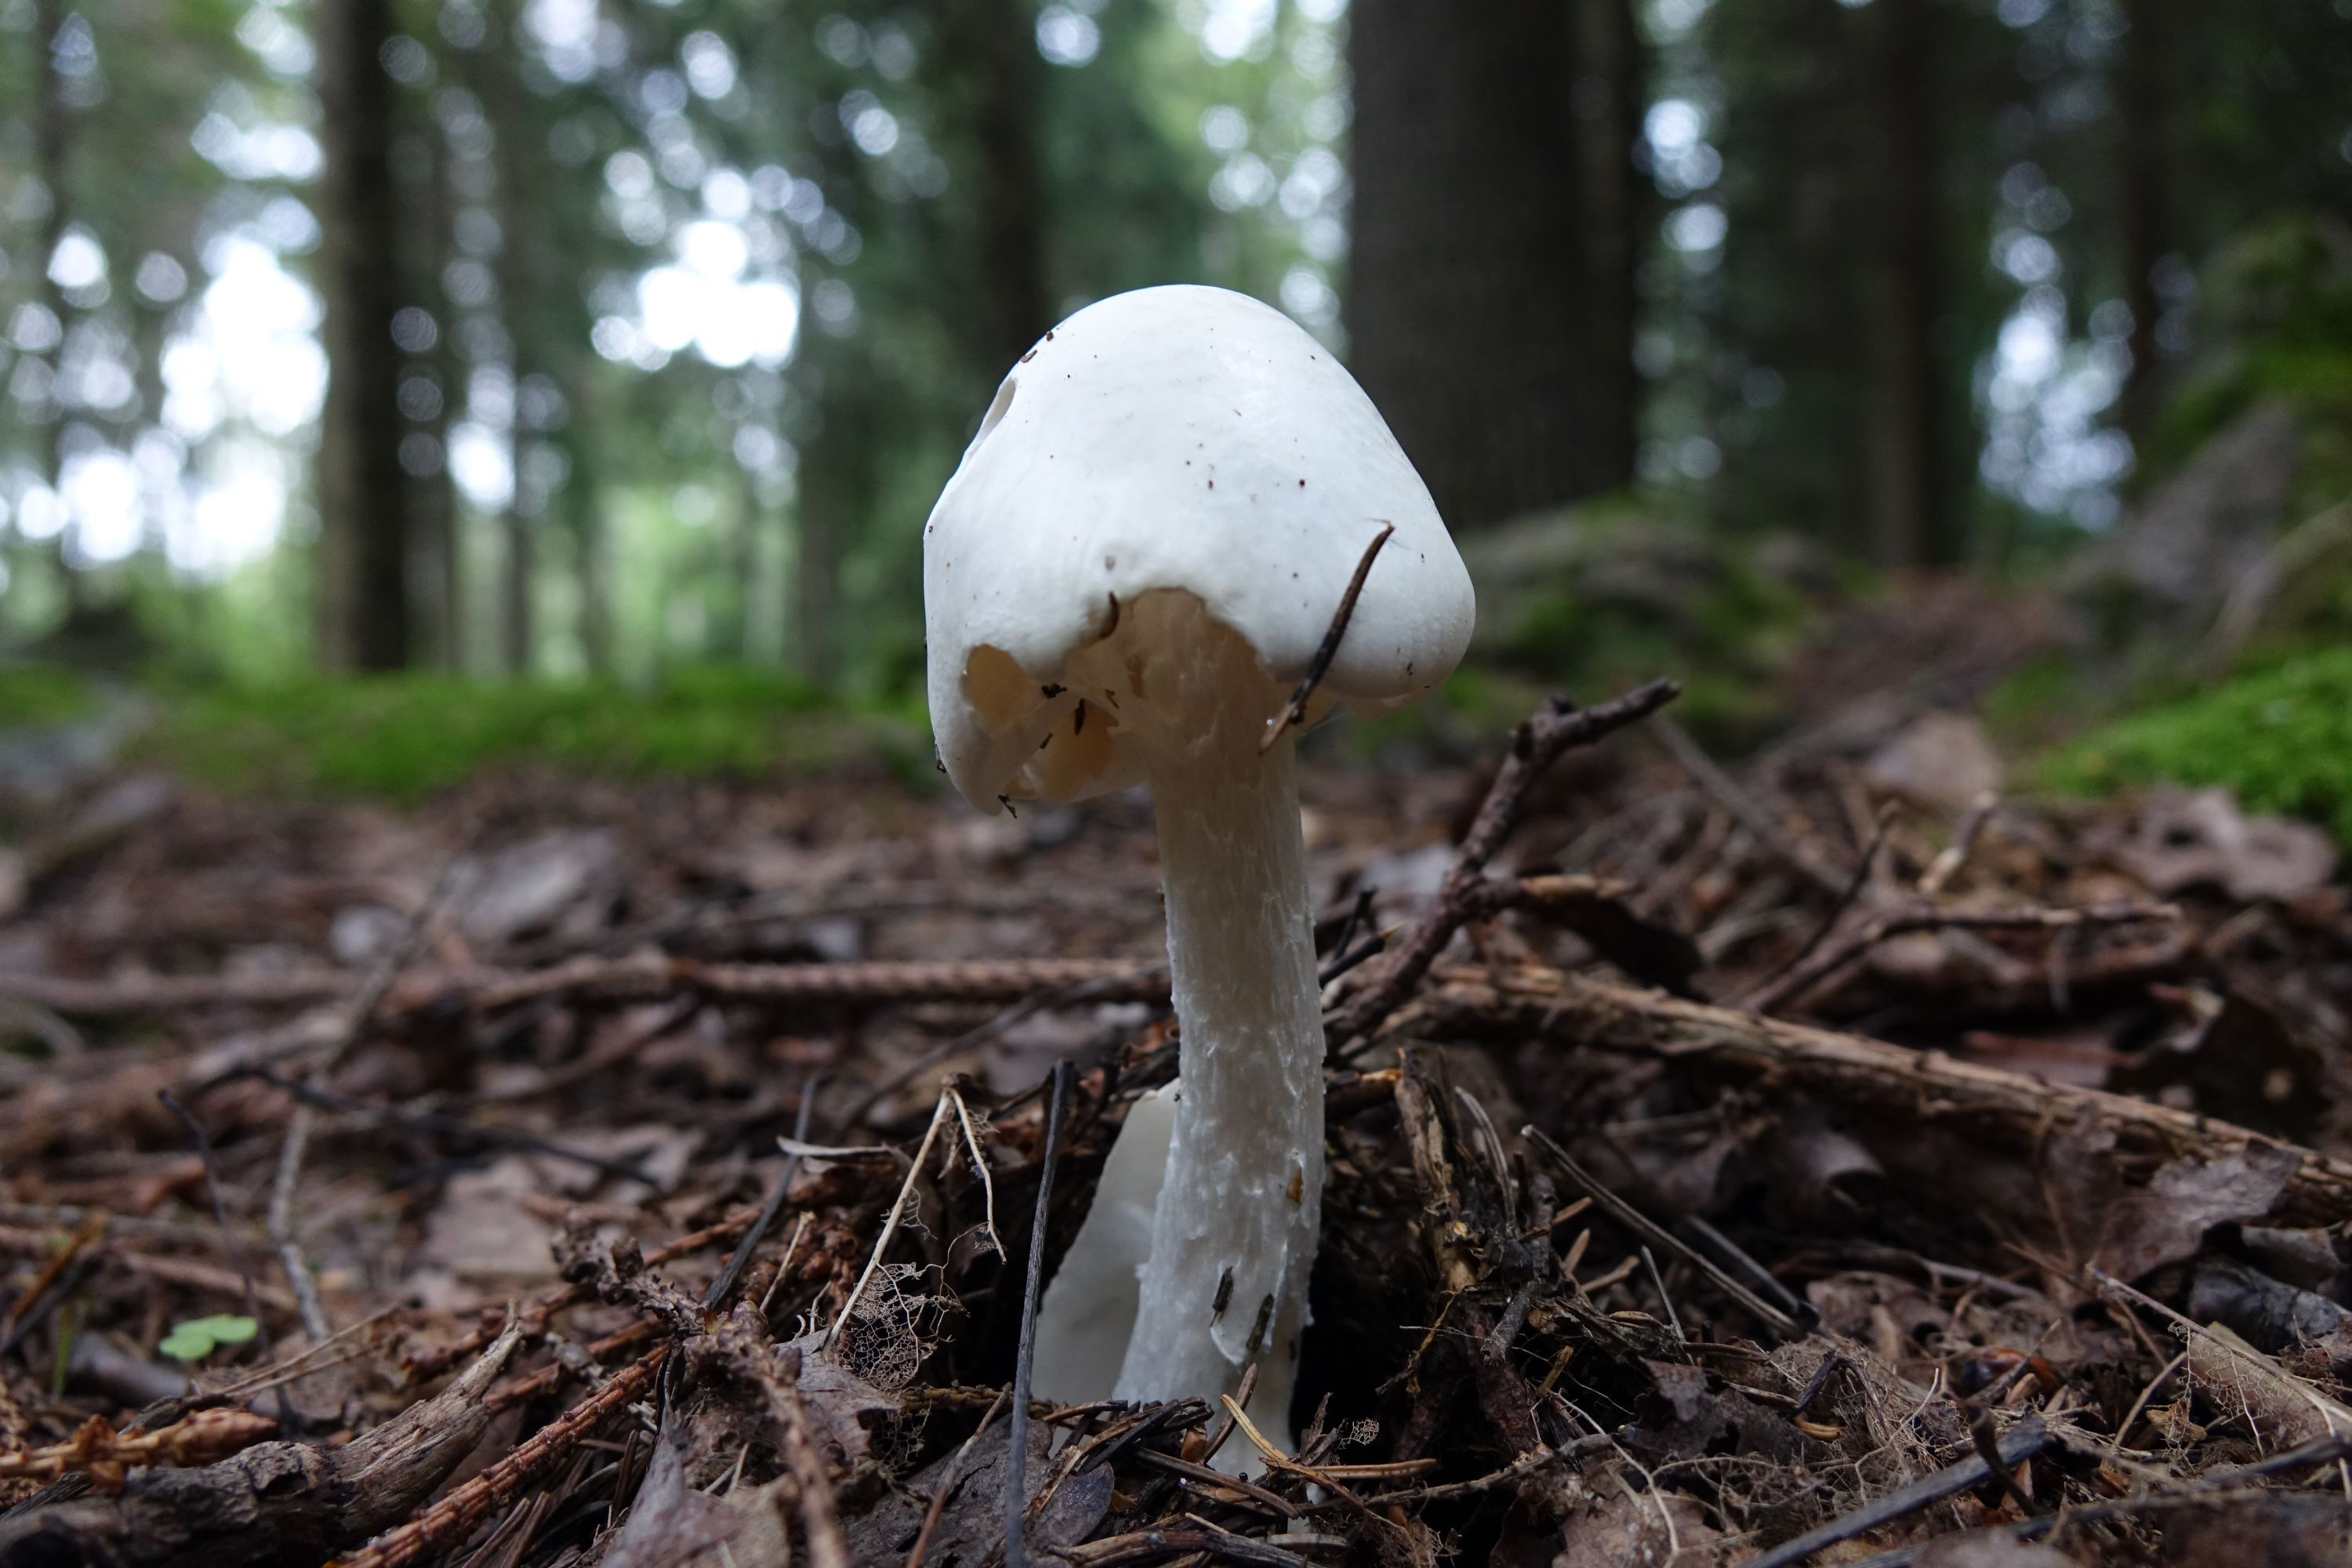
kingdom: Fungi
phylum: Basidiomycota
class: Agaricomycetes
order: Agaricales
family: Amanitaceae
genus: Amanita
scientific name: Amanita virosa
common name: Destroying angel
